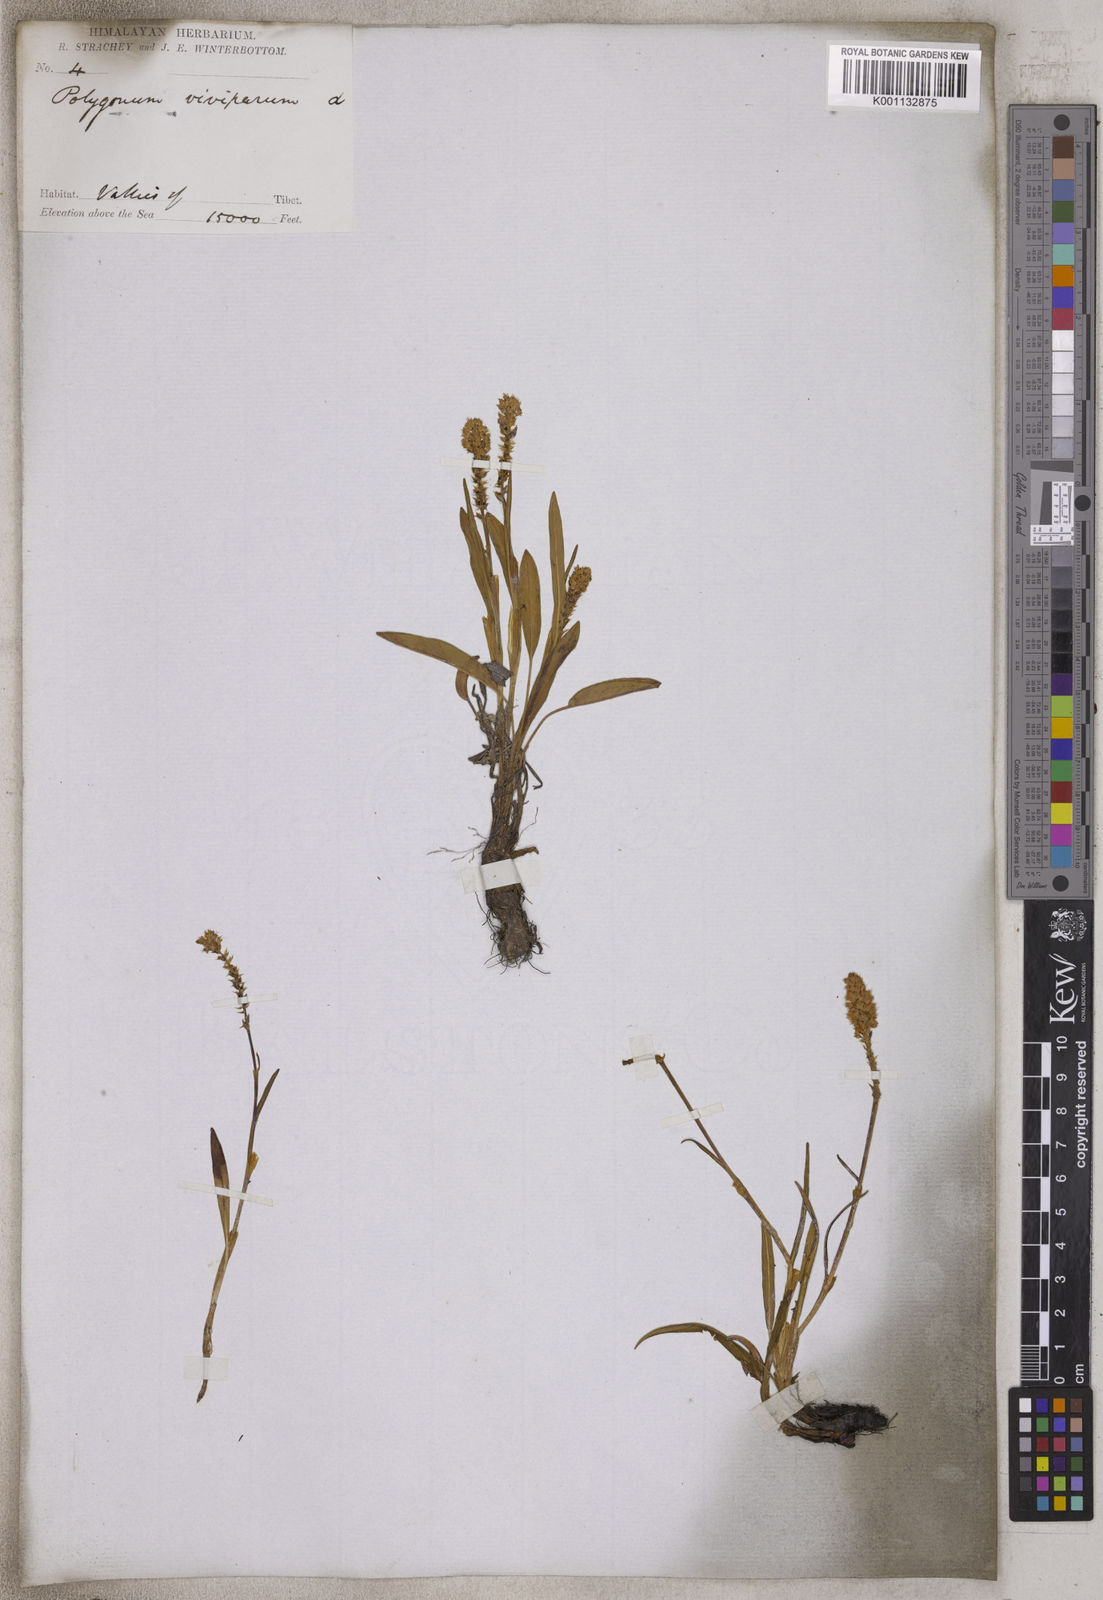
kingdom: Plantae
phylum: Tracheophyta
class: Magnoliopsida
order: Caryophyllales
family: Polygonaceae
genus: Bistorta
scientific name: Bistorta vivipara
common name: Alpine bistort
